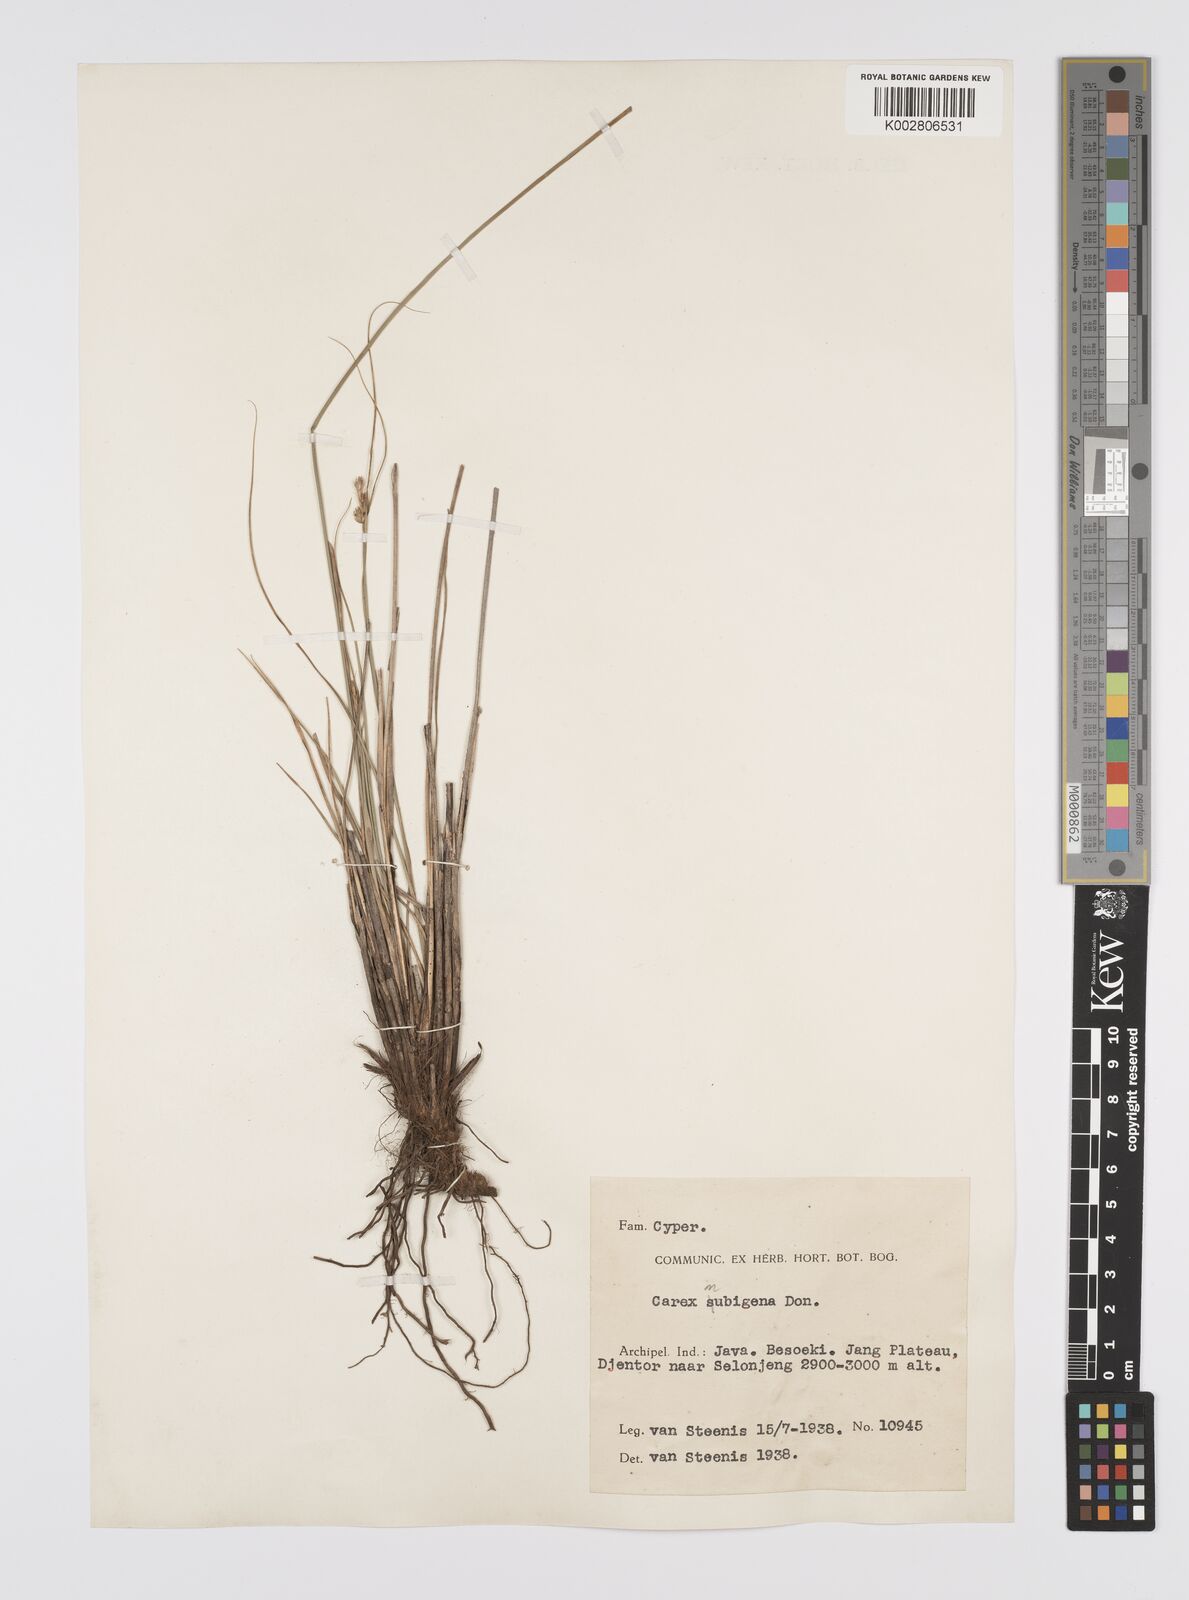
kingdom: Plantae
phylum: Tracheophyta
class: Liliopsida
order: Poales
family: Cyperaceae
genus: Carex
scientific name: Carex
